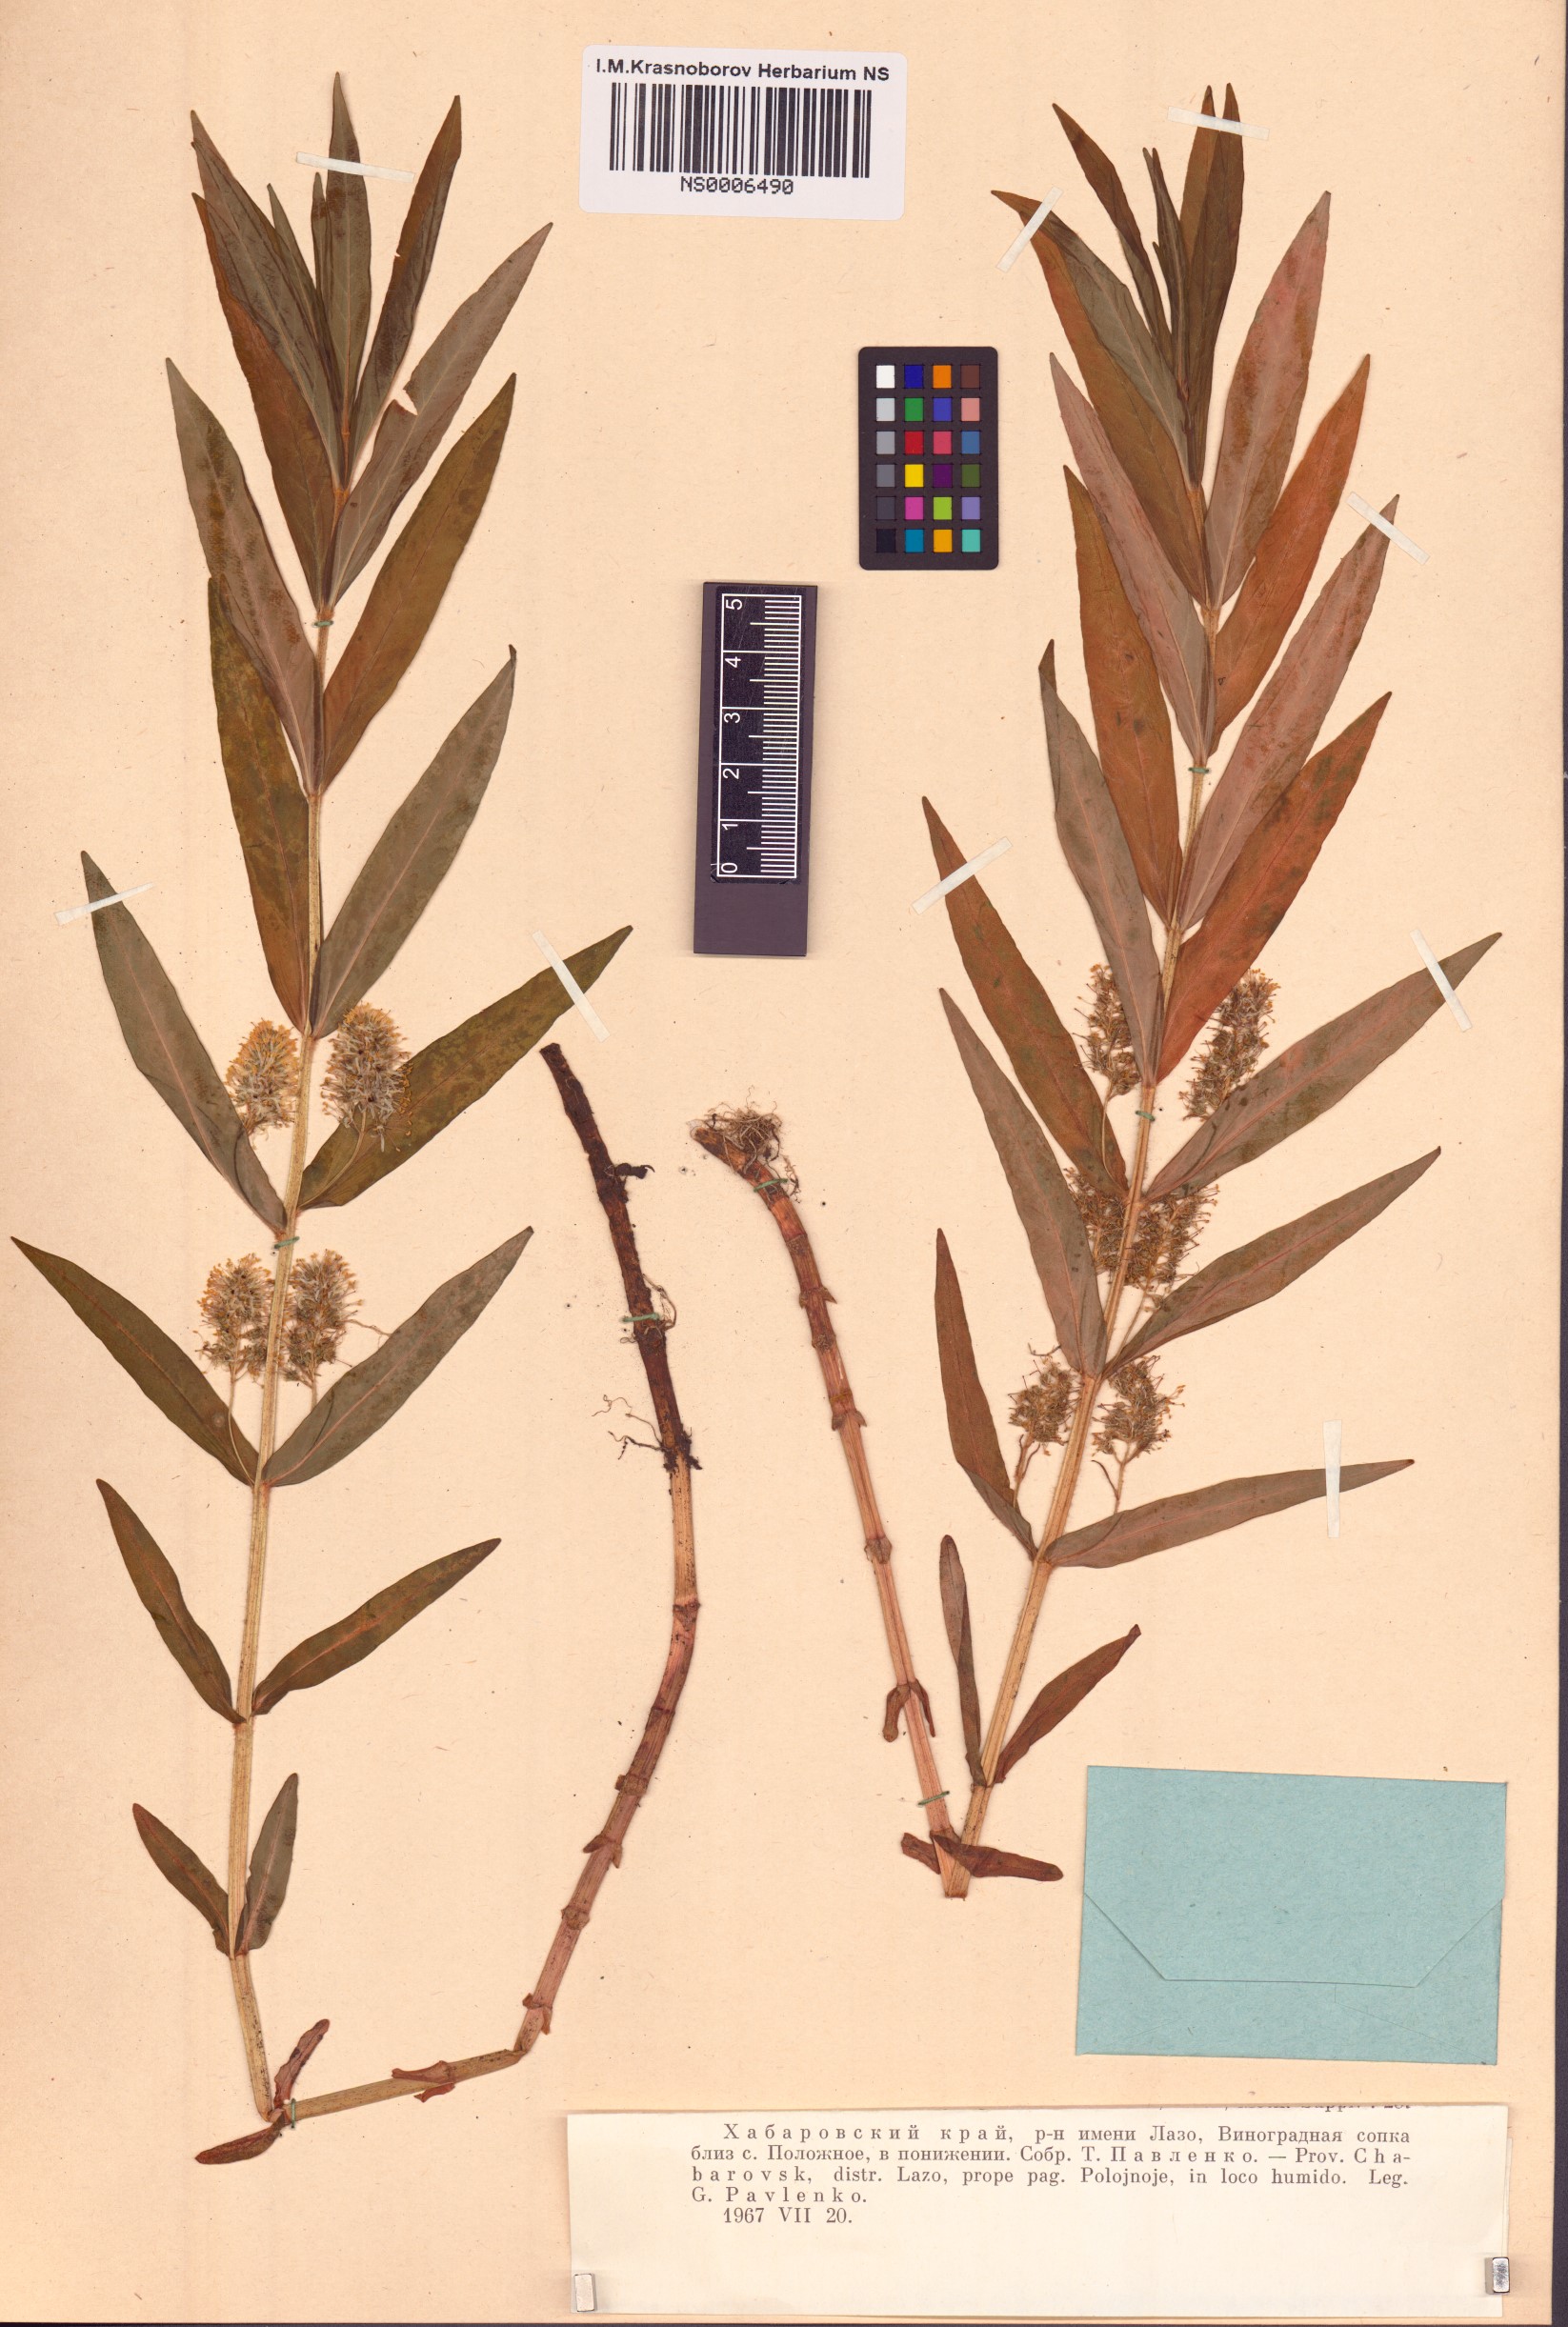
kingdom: Plantae
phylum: Tracheophyta
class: Magnoliopsida
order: Ericales
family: Primulaceae
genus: Lysimachia
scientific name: Lysimachia thyrsiflora
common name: Tufted loosestrife
